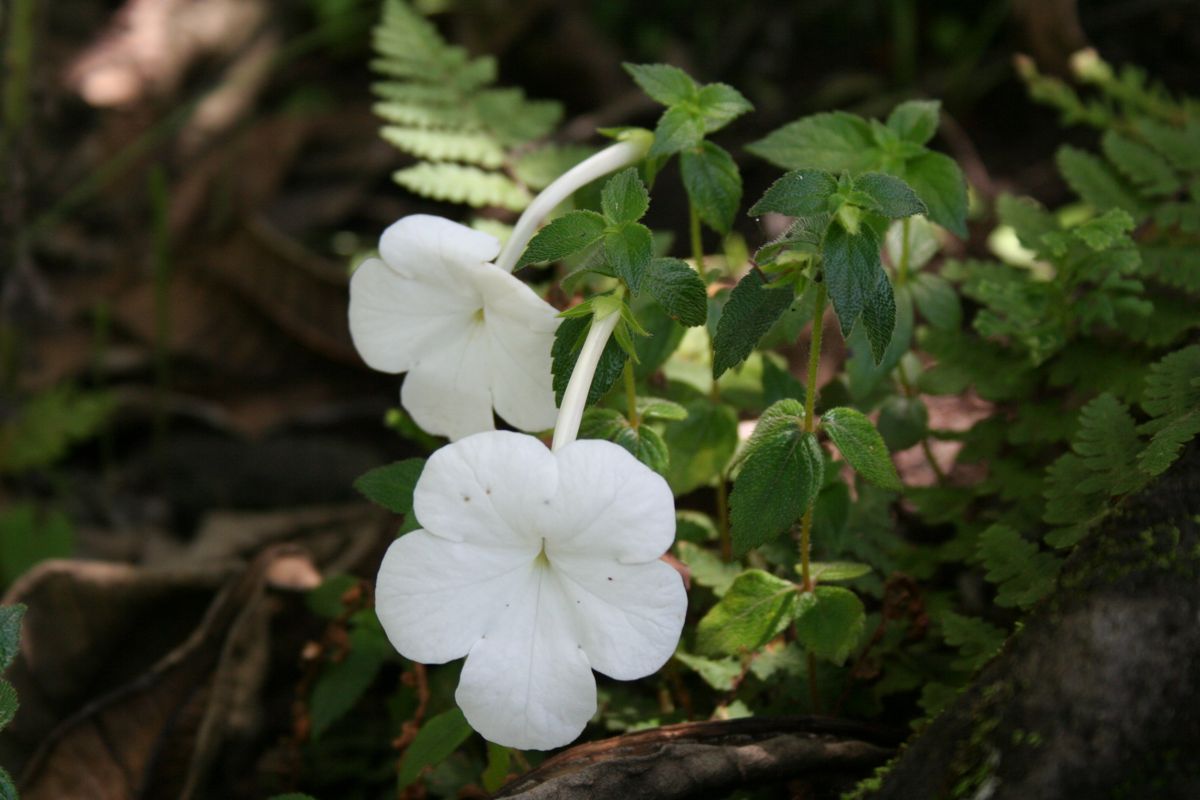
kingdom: Plantae
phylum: Tracheophyta
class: Magnoliopsida
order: Lamiales
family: Gesneriaceae
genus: Achimenes
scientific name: Achimenes longiflora
